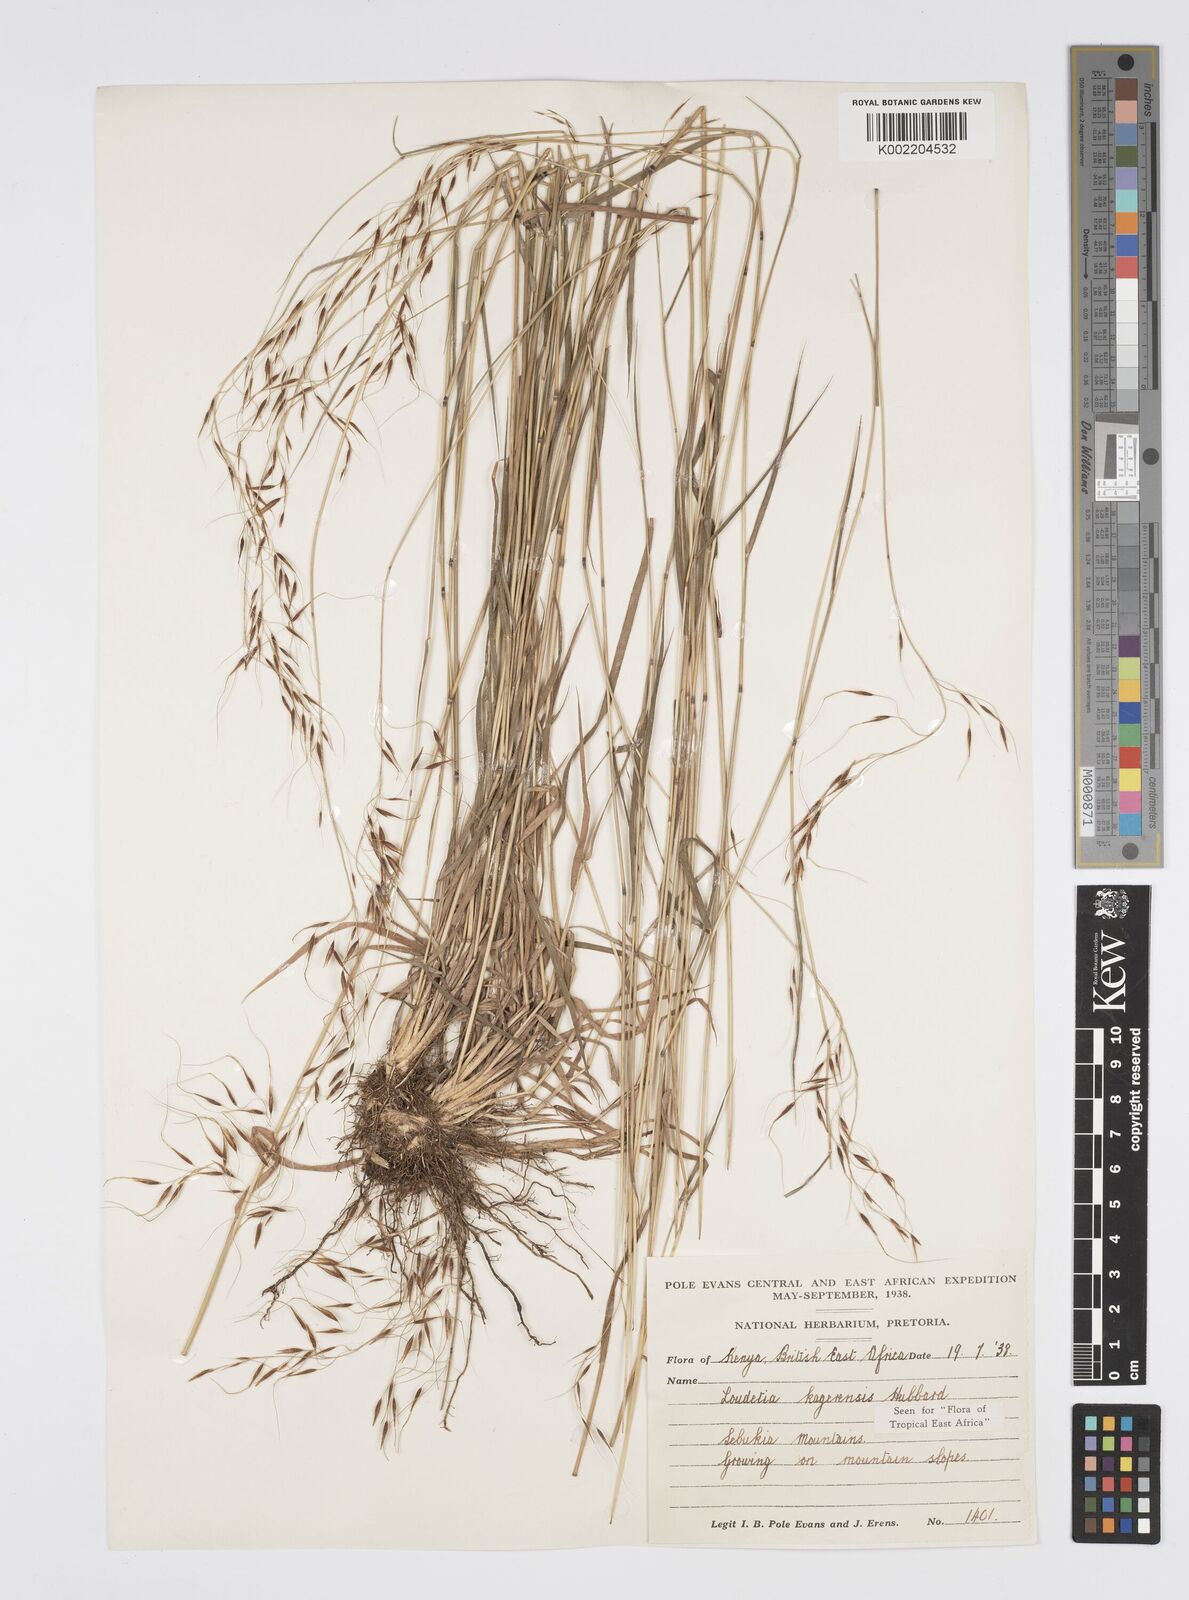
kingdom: Plantae
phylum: Tracheophyta
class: Liliopsida
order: Poales
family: Poaceae
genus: Loudetia
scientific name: Loudetia kagerensis
